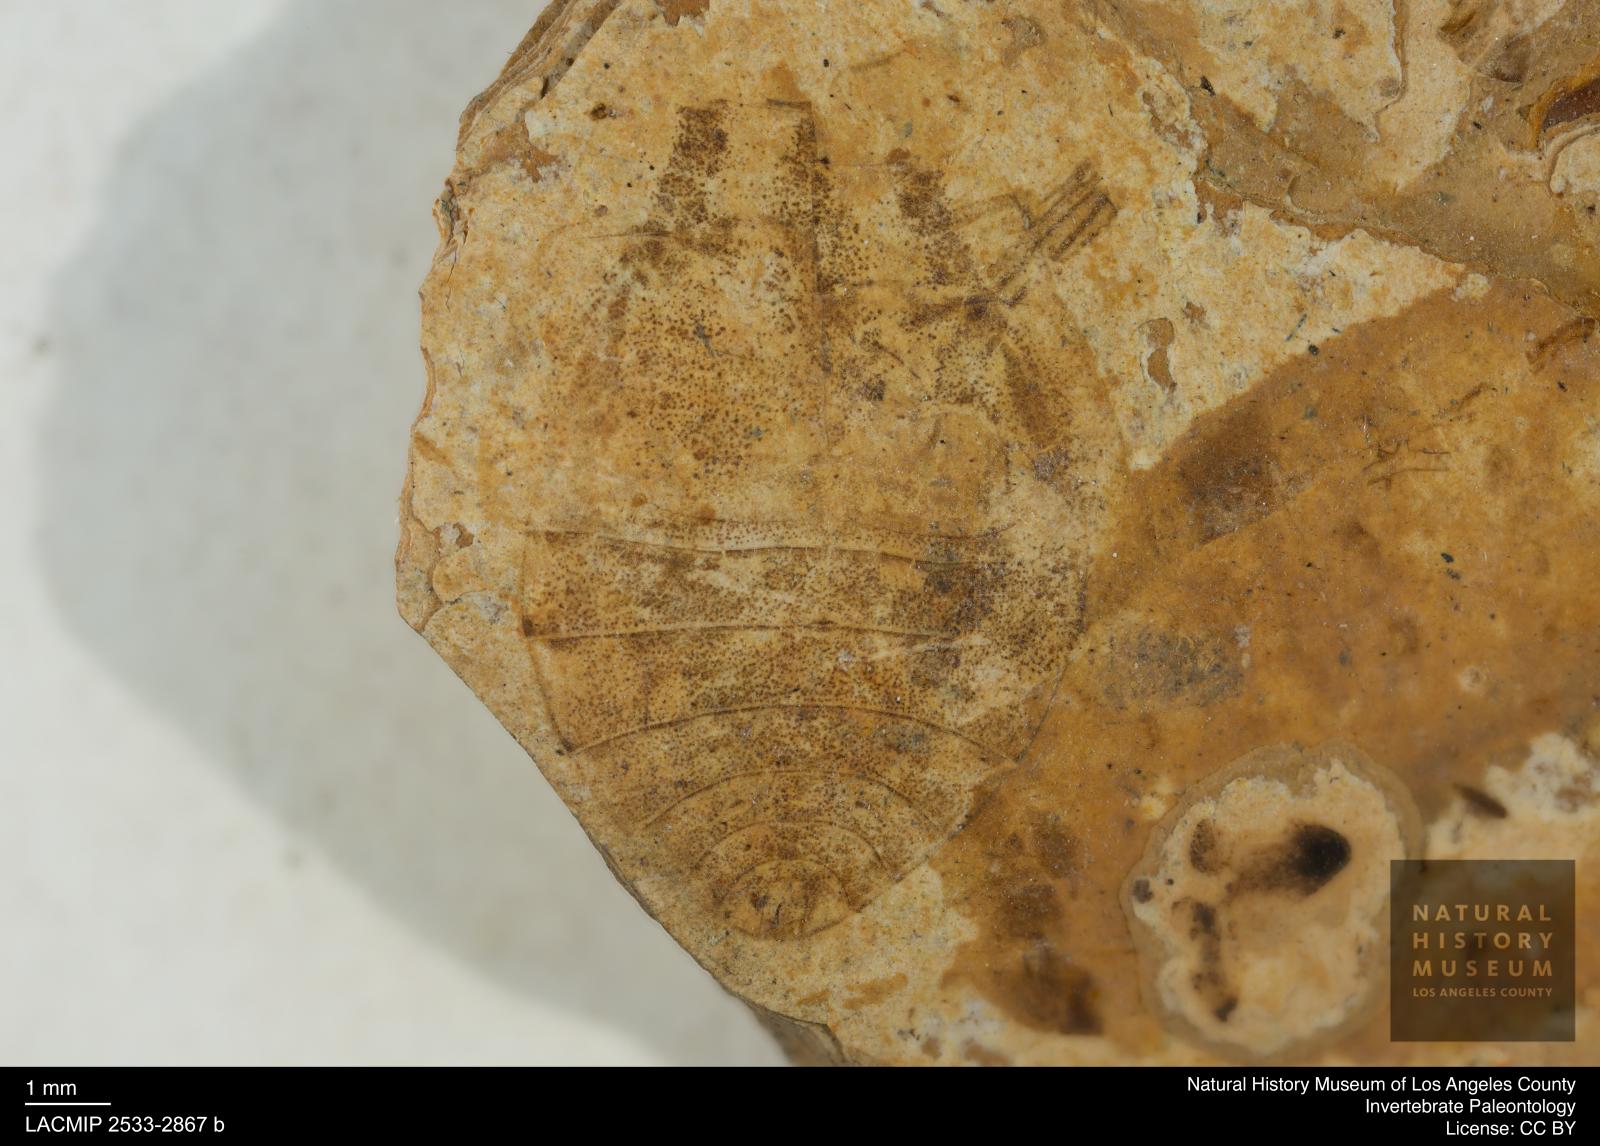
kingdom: Animalia
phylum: Arthropoda
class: Insecta
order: Hemiptera
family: Naucoridae
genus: Naucoris
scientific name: Naucoris rottensis
